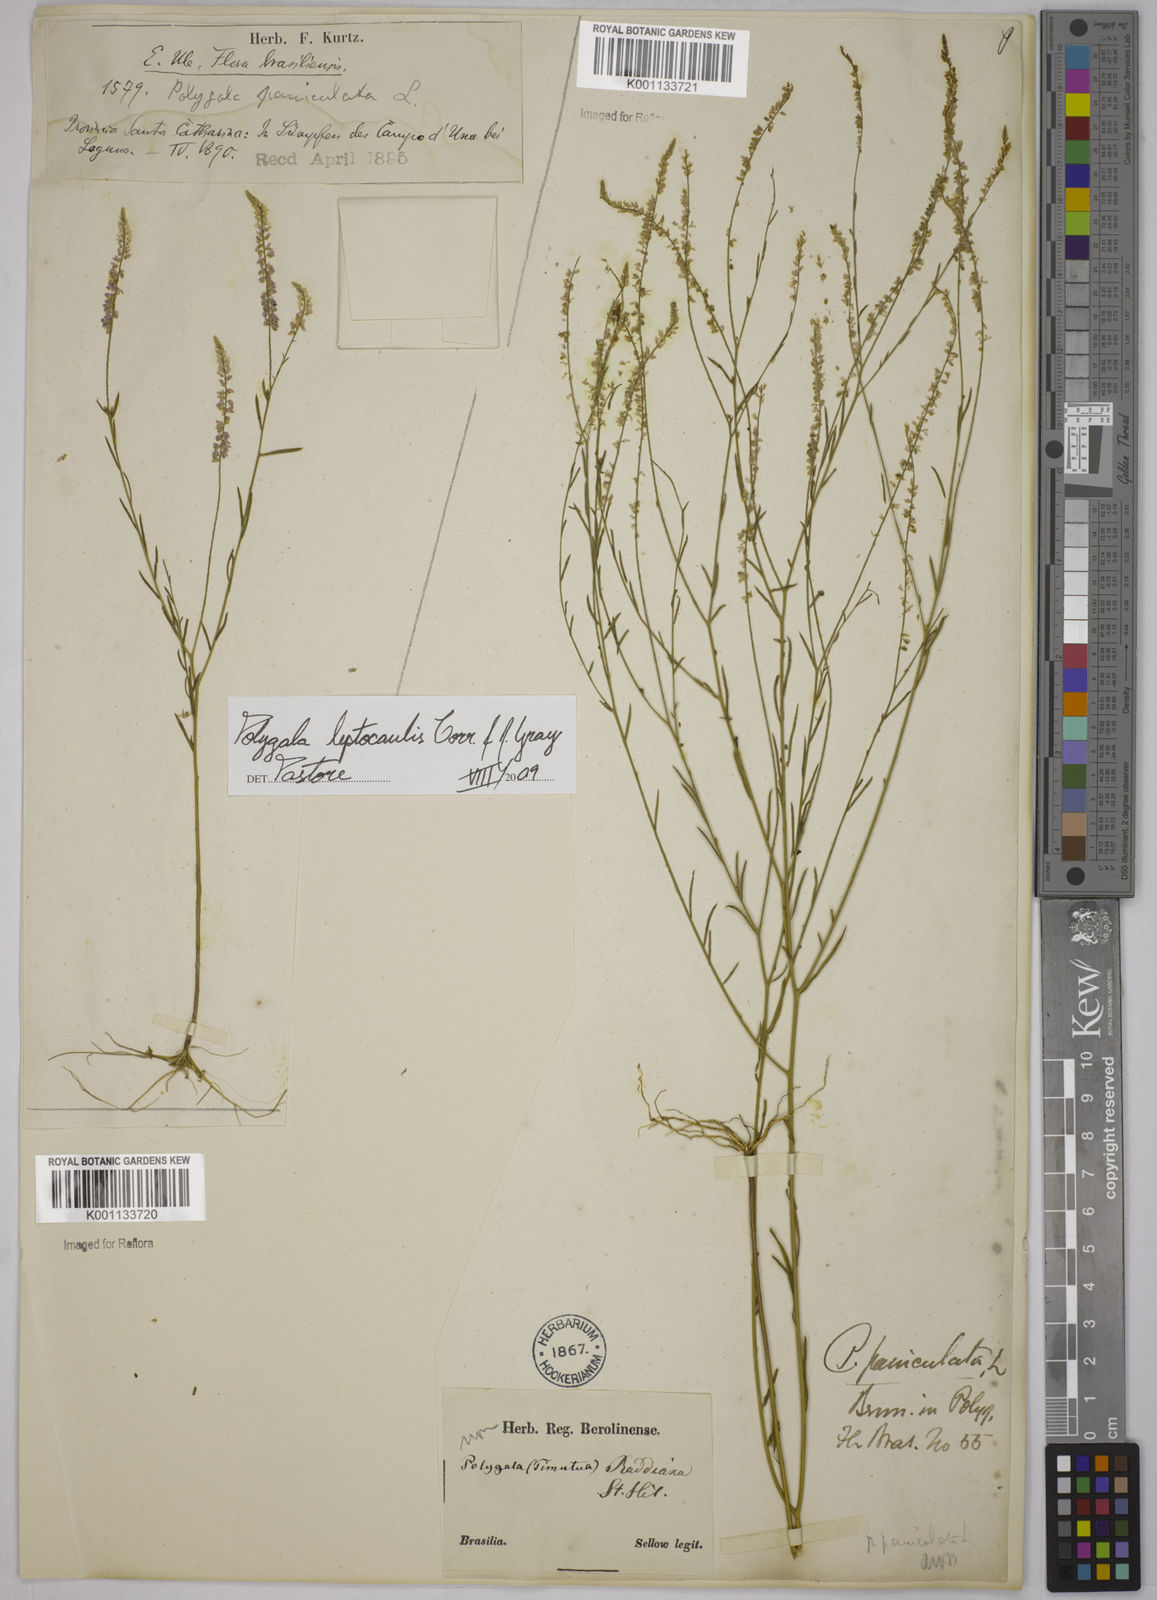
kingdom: Plantae
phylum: Tracheophyta
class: Magnoliopsida
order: Fabales
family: Polygalaceae
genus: Polygala
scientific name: Polygala tenella
